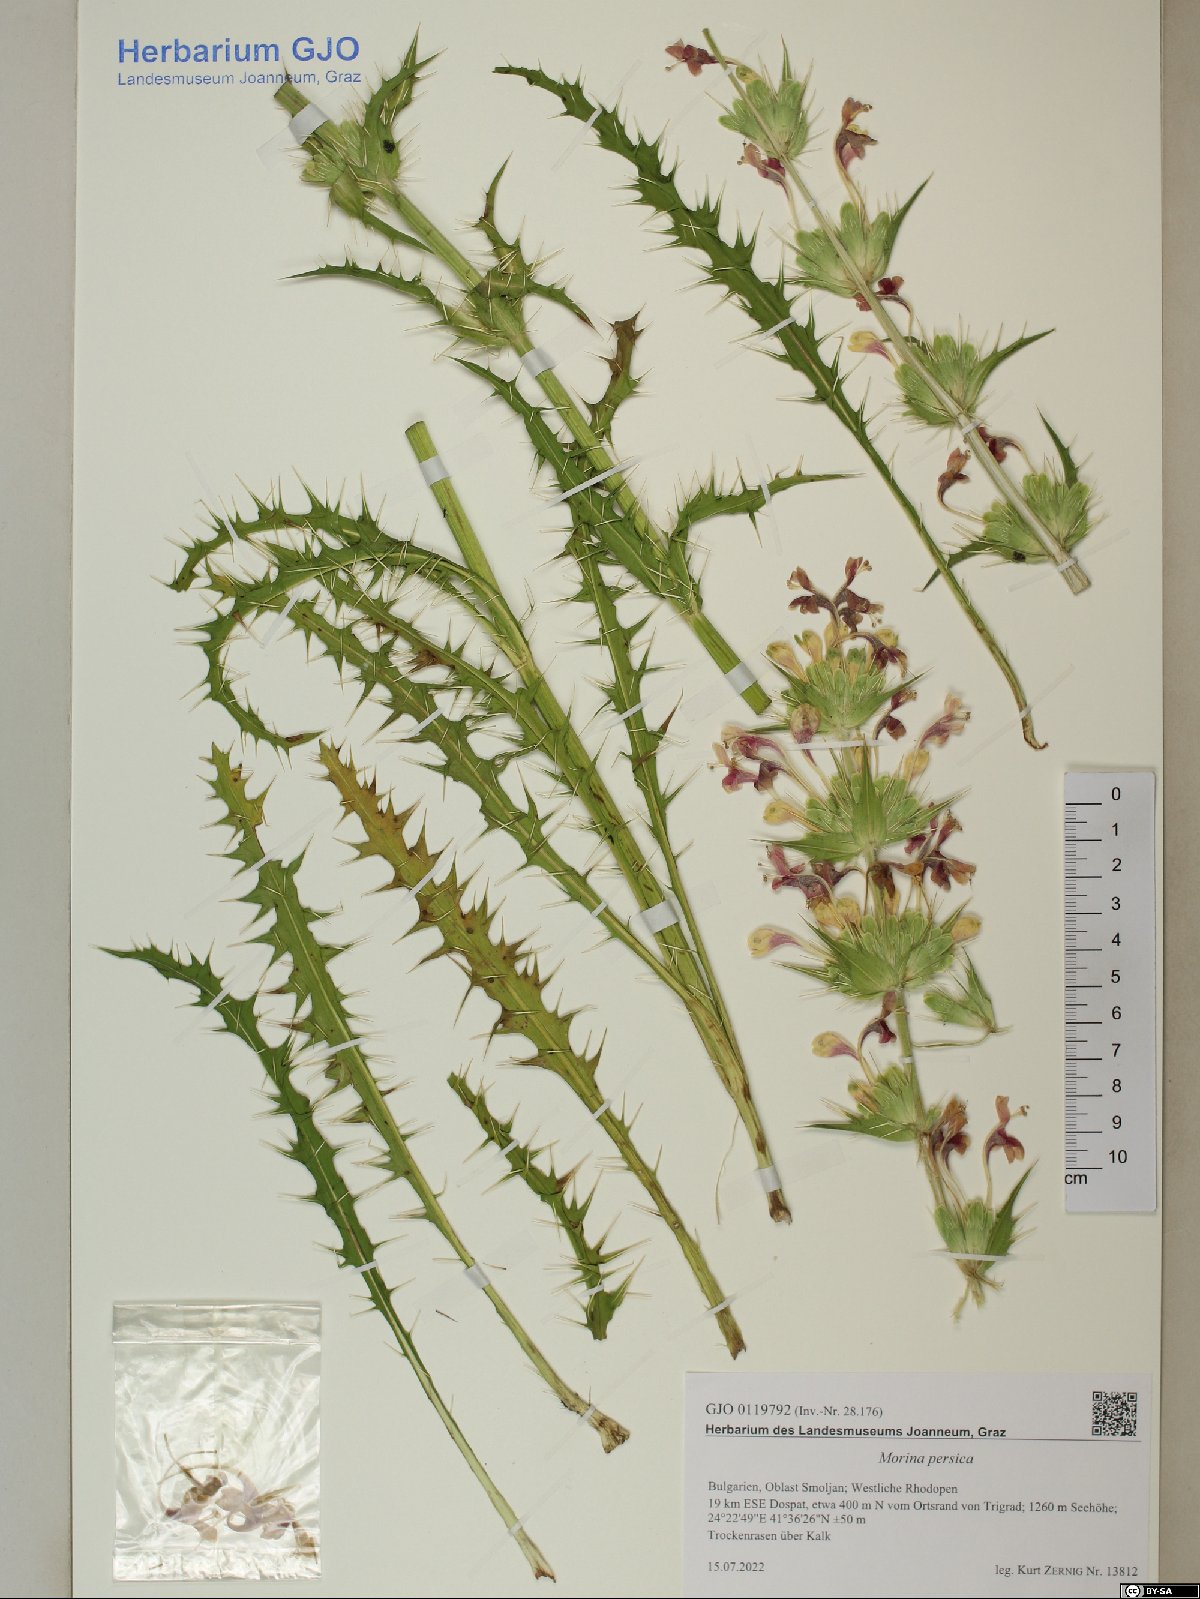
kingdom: Plantae
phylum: Tracheophyta
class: Magnoliopsida
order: Dipsacales
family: Caprifoliaceae
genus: Morina
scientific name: Morina persica
